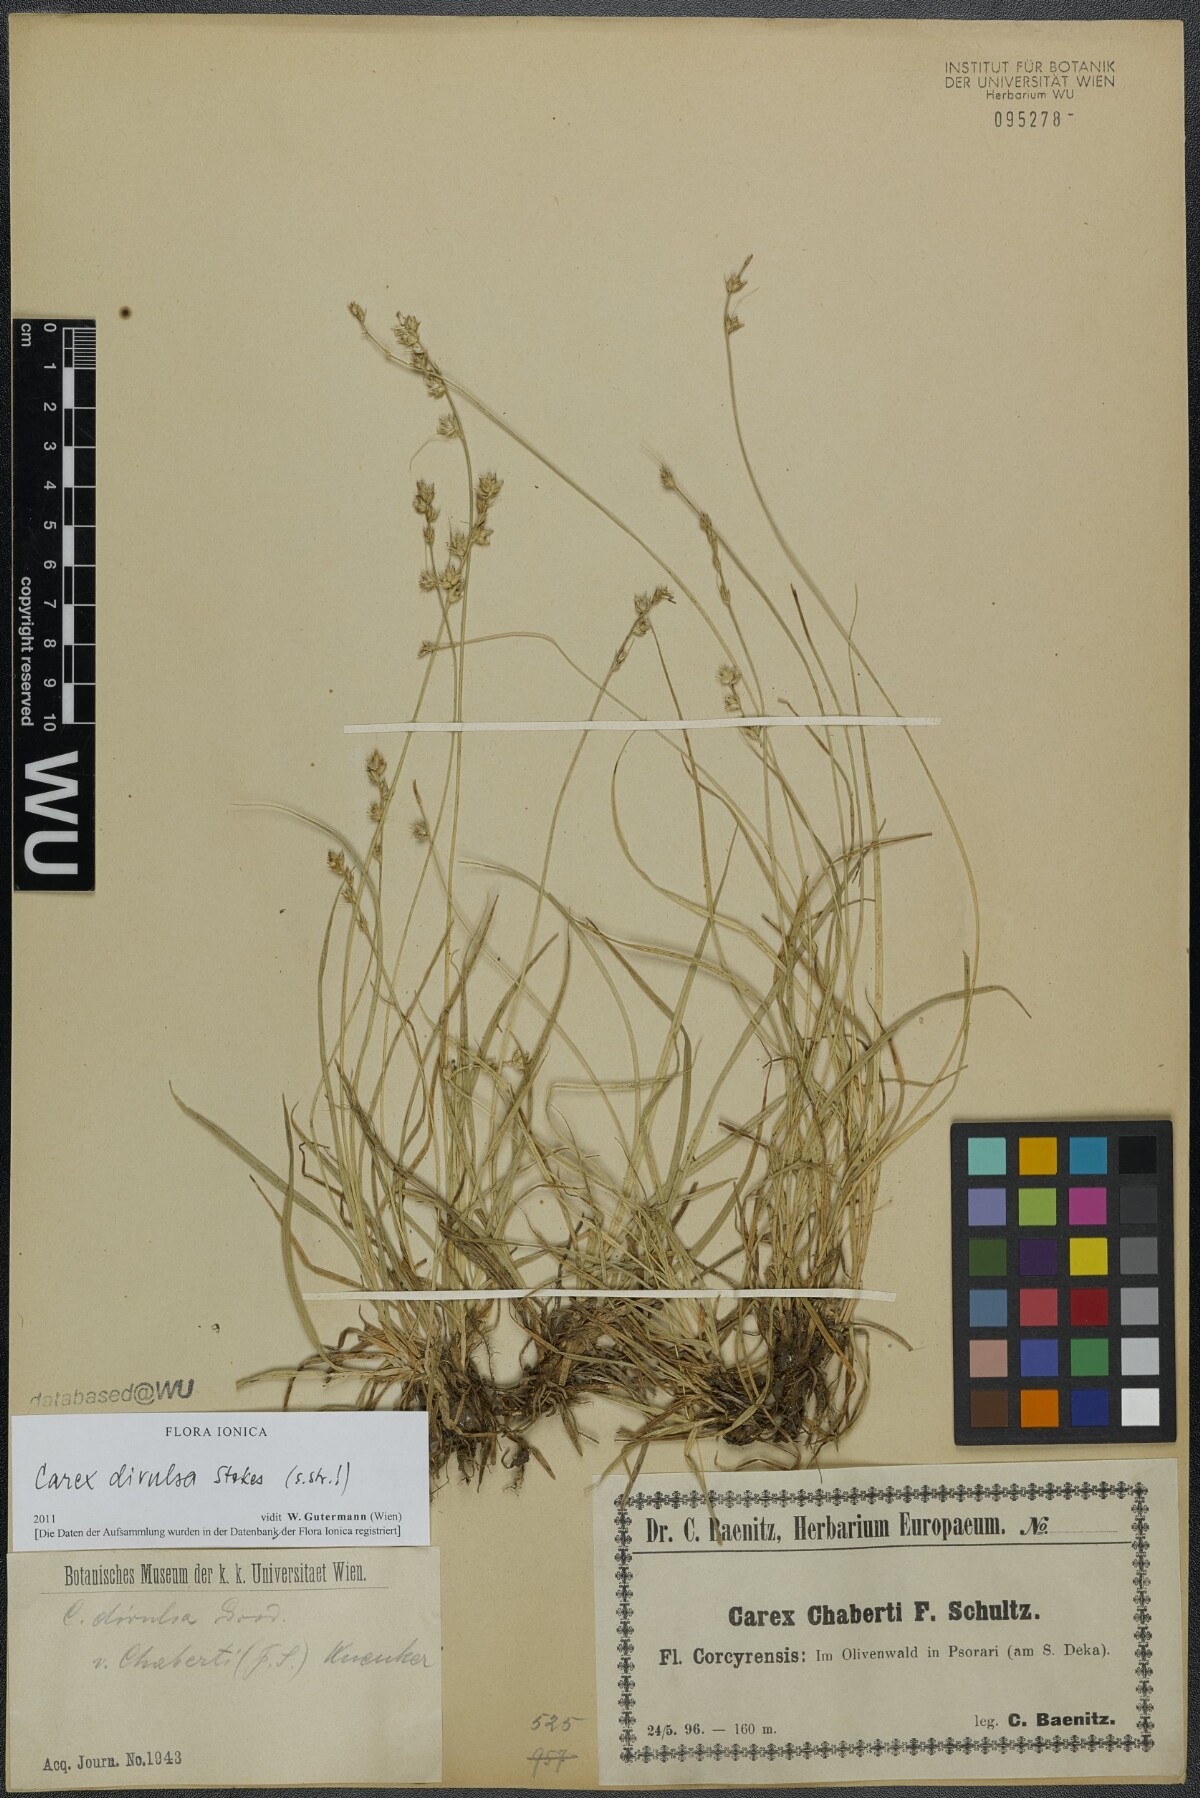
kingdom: Plantae
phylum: Tracheophyta
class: Liliopsida
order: Poales
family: Cyperaceae
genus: Carex
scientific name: Carex divulsa
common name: Grassland sedge
